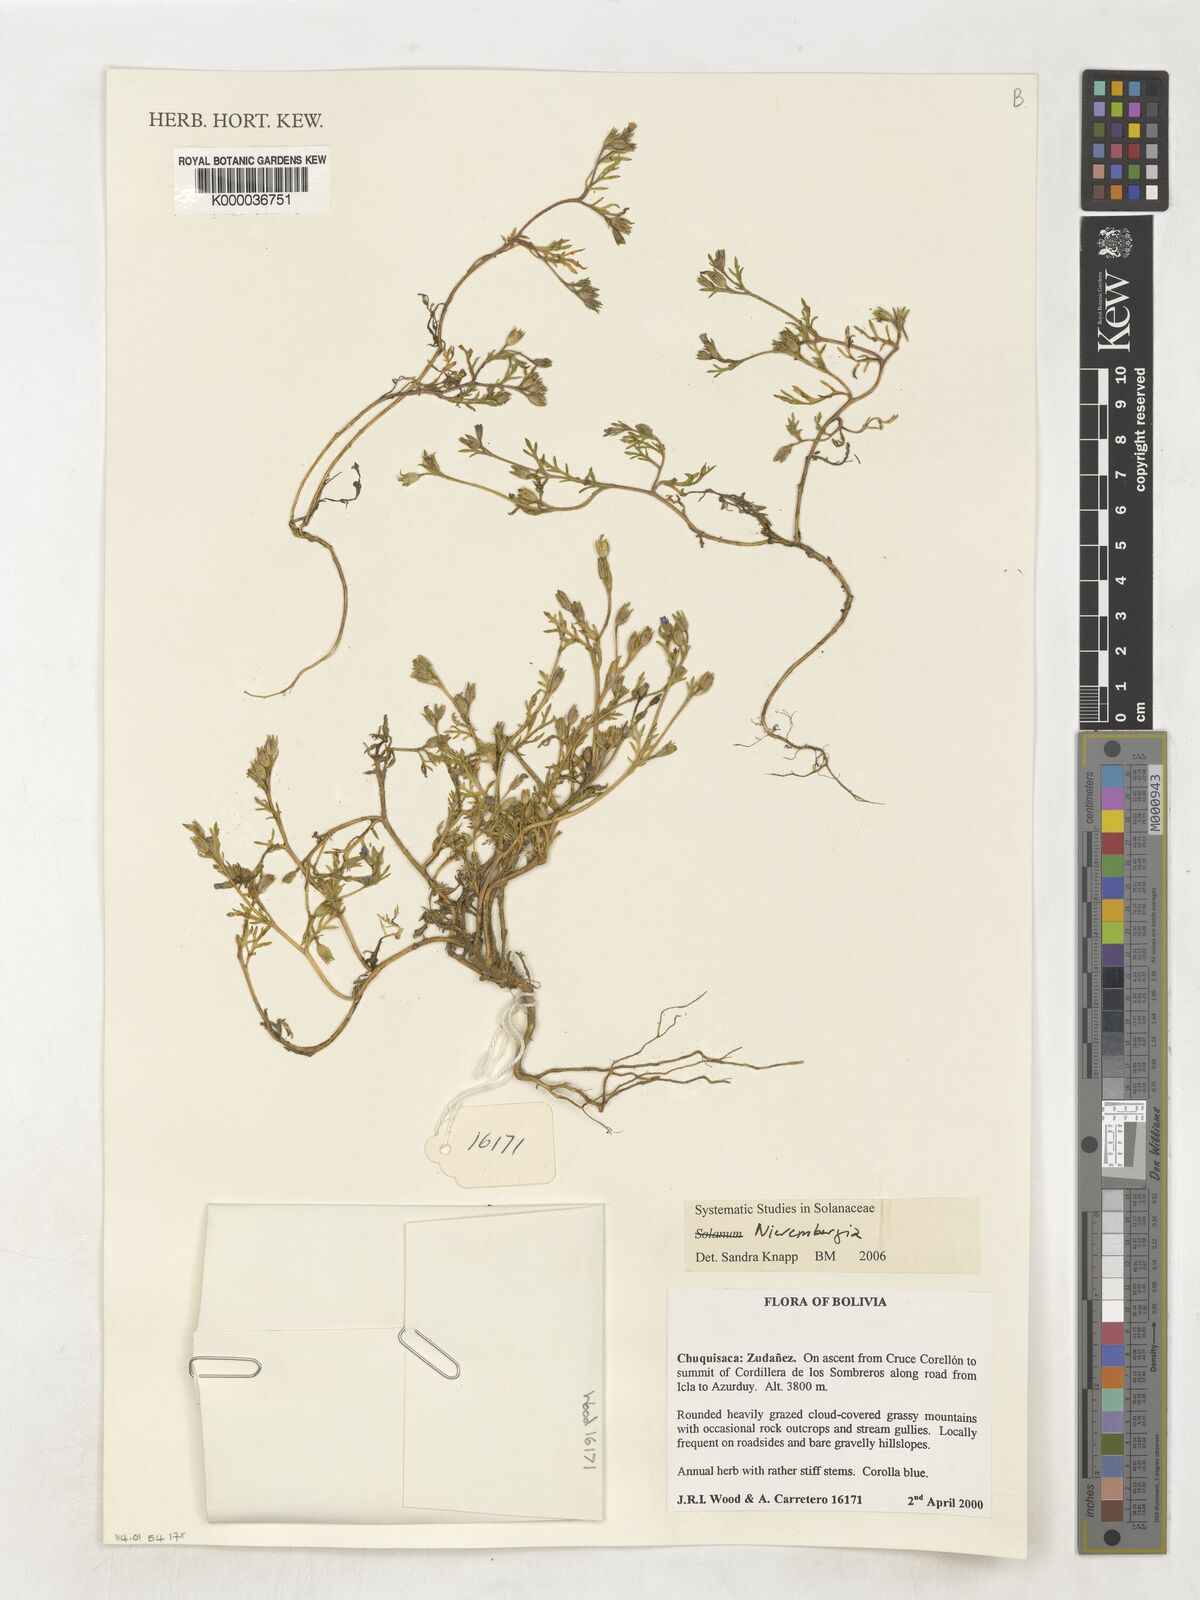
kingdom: Plantae
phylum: Tracheophyta
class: Magnoliopsida
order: Solanales
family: Solanaceae
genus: Nierembergia
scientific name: Nierembergia
